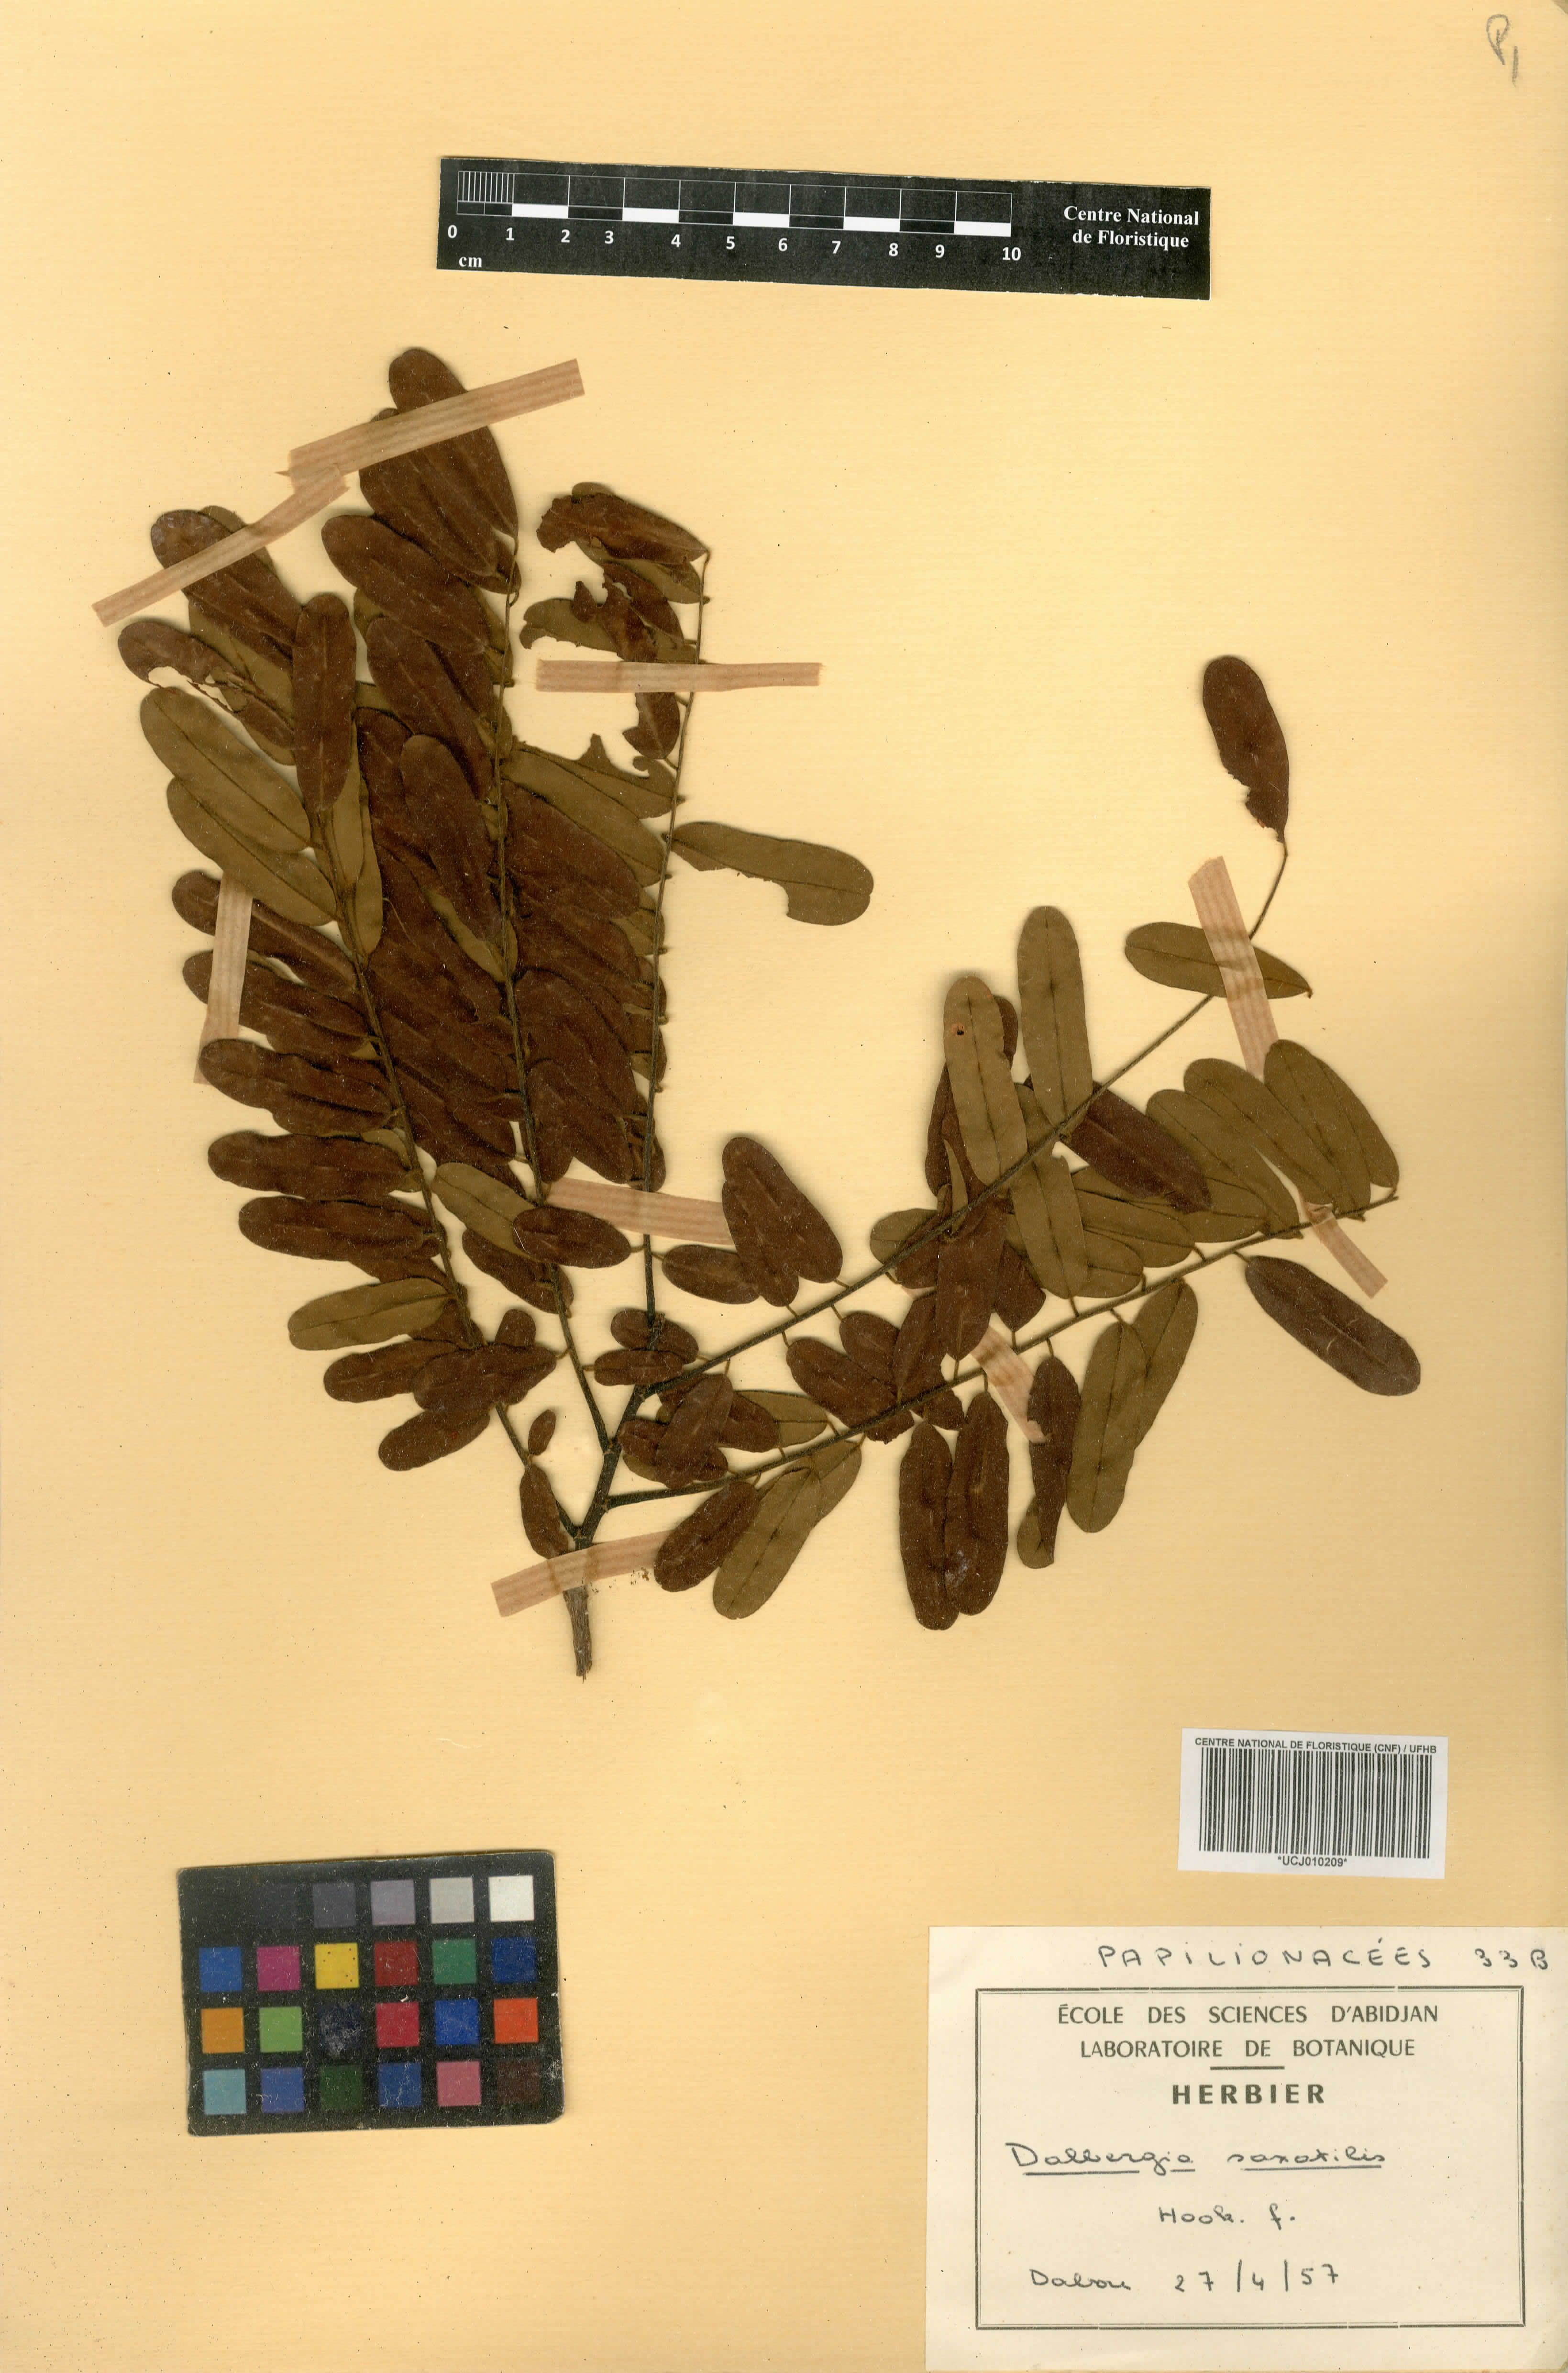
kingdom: Plantae
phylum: Tracheophyta
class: Magnoliopsida
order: Fabales
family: Fabaceae
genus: Dalbergia
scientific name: Dalbergia saxatilis
